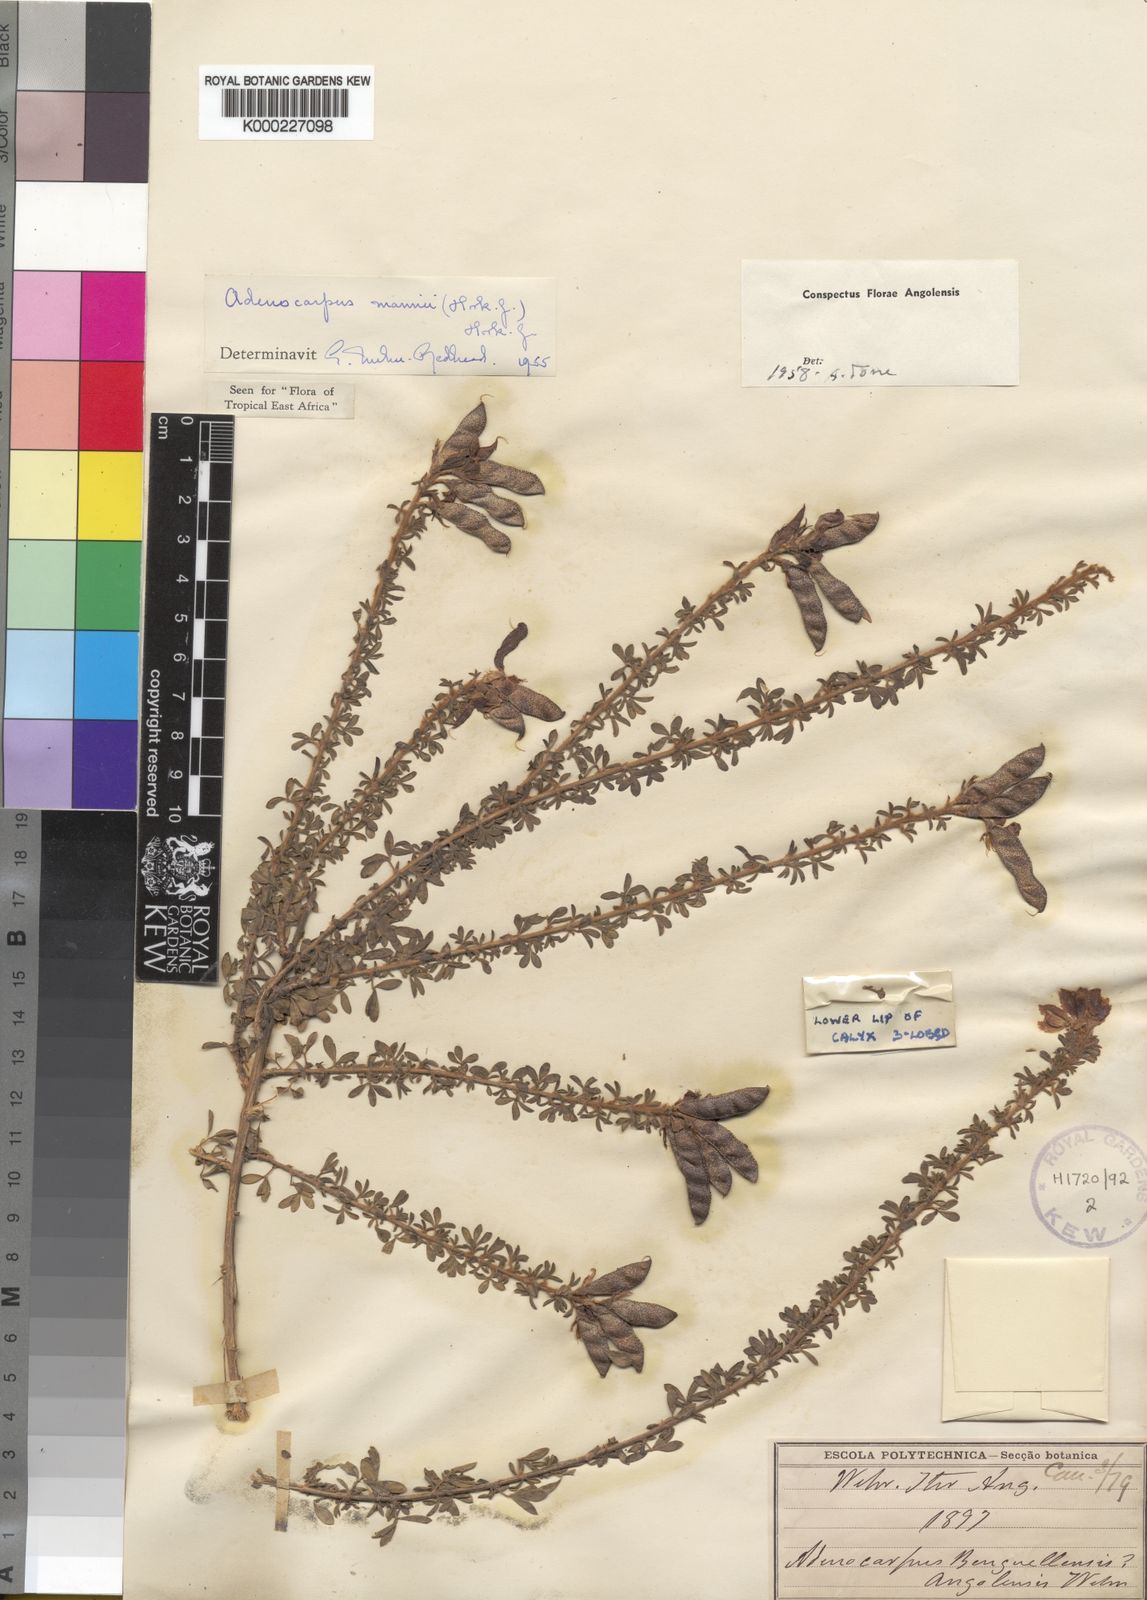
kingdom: Plantae
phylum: Tracheophyta
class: Magnoliopsida
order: Fabales
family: Fabaceae
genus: Adenocarpus
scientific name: Adenocarpus mannii
